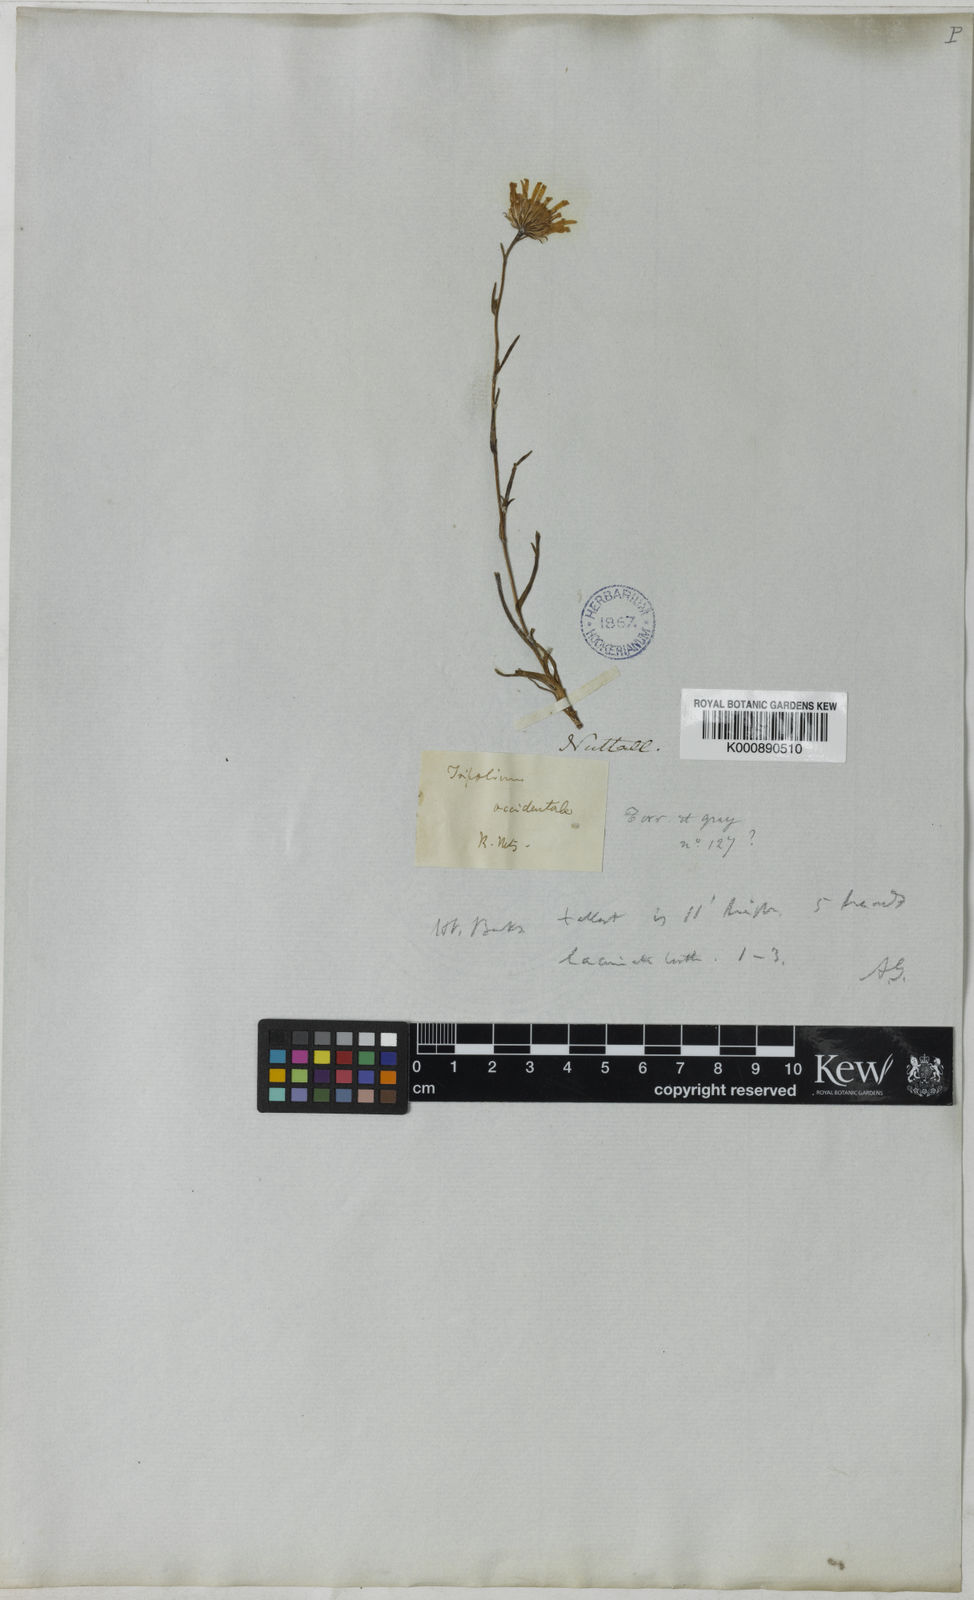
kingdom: Plantae
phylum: Tracheophyta
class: Magnoliopsida
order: Asterales
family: Asteraceae
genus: Symphyotrichum
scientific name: Symphyotrichum spathulatum
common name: Western mountain aster
